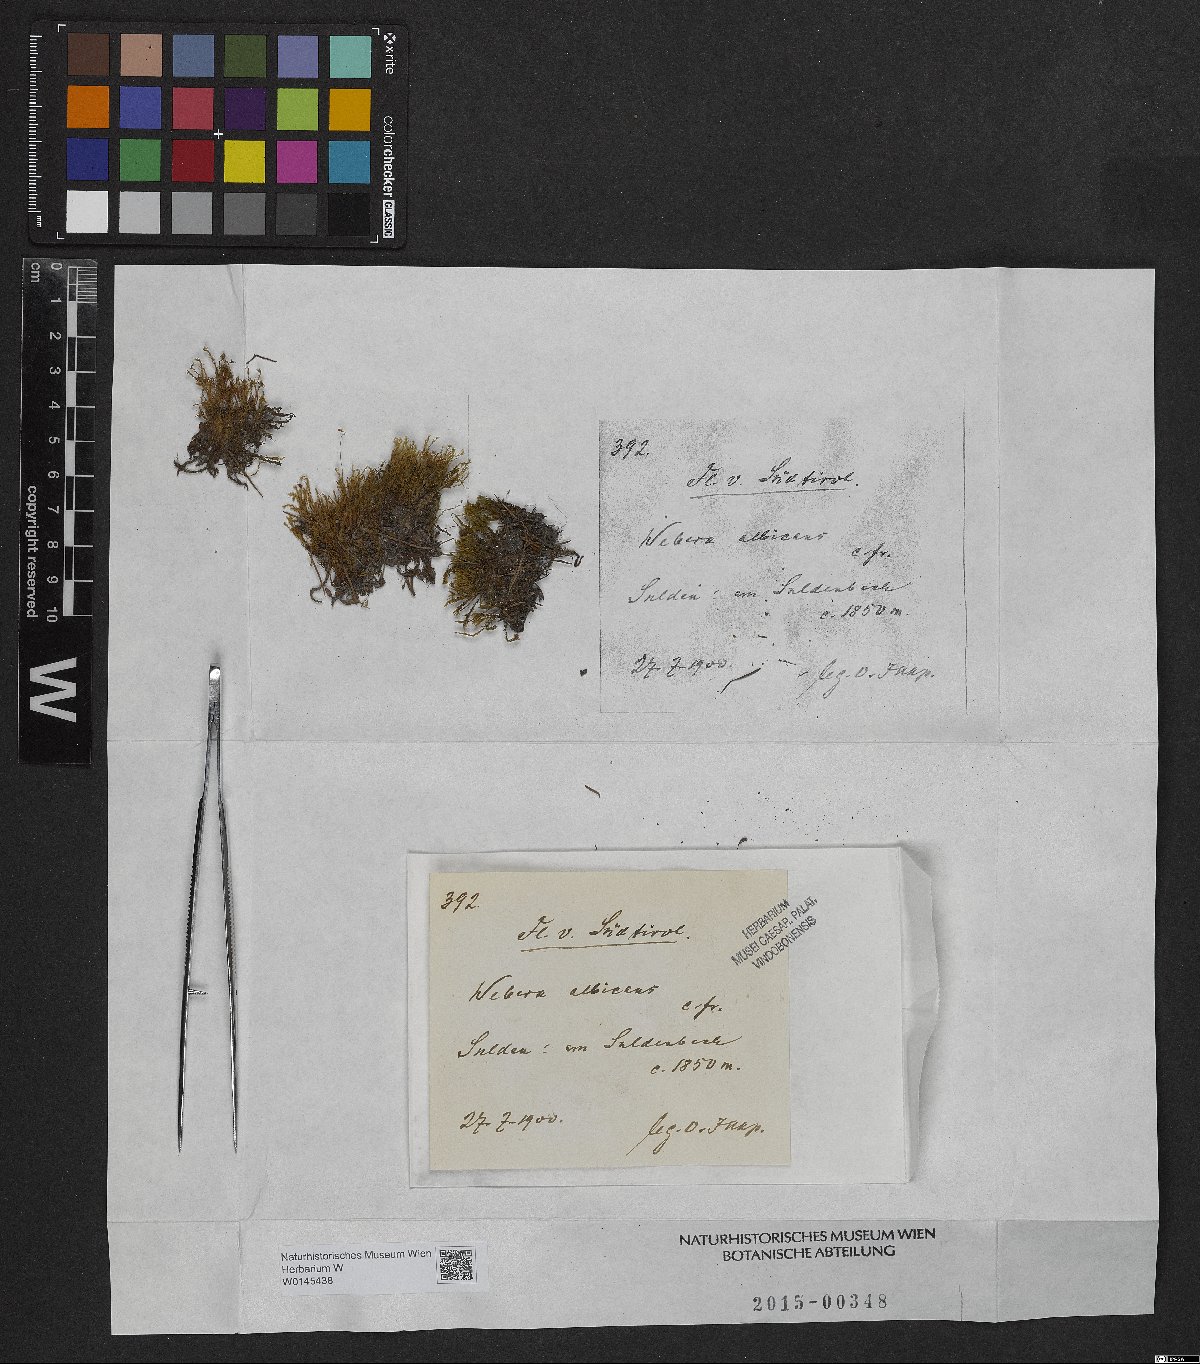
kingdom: Plantae
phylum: Bryophyta
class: Bryopsida
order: Bryales
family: Mniaceae
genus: Pohlia
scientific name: Pohlia wahlenbergii
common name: Wahlenberg's nodding moss
